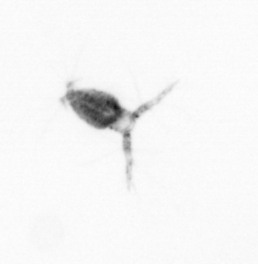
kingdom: Animalia
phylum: Arthropoda
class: Copepoda
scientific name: Copepoda
